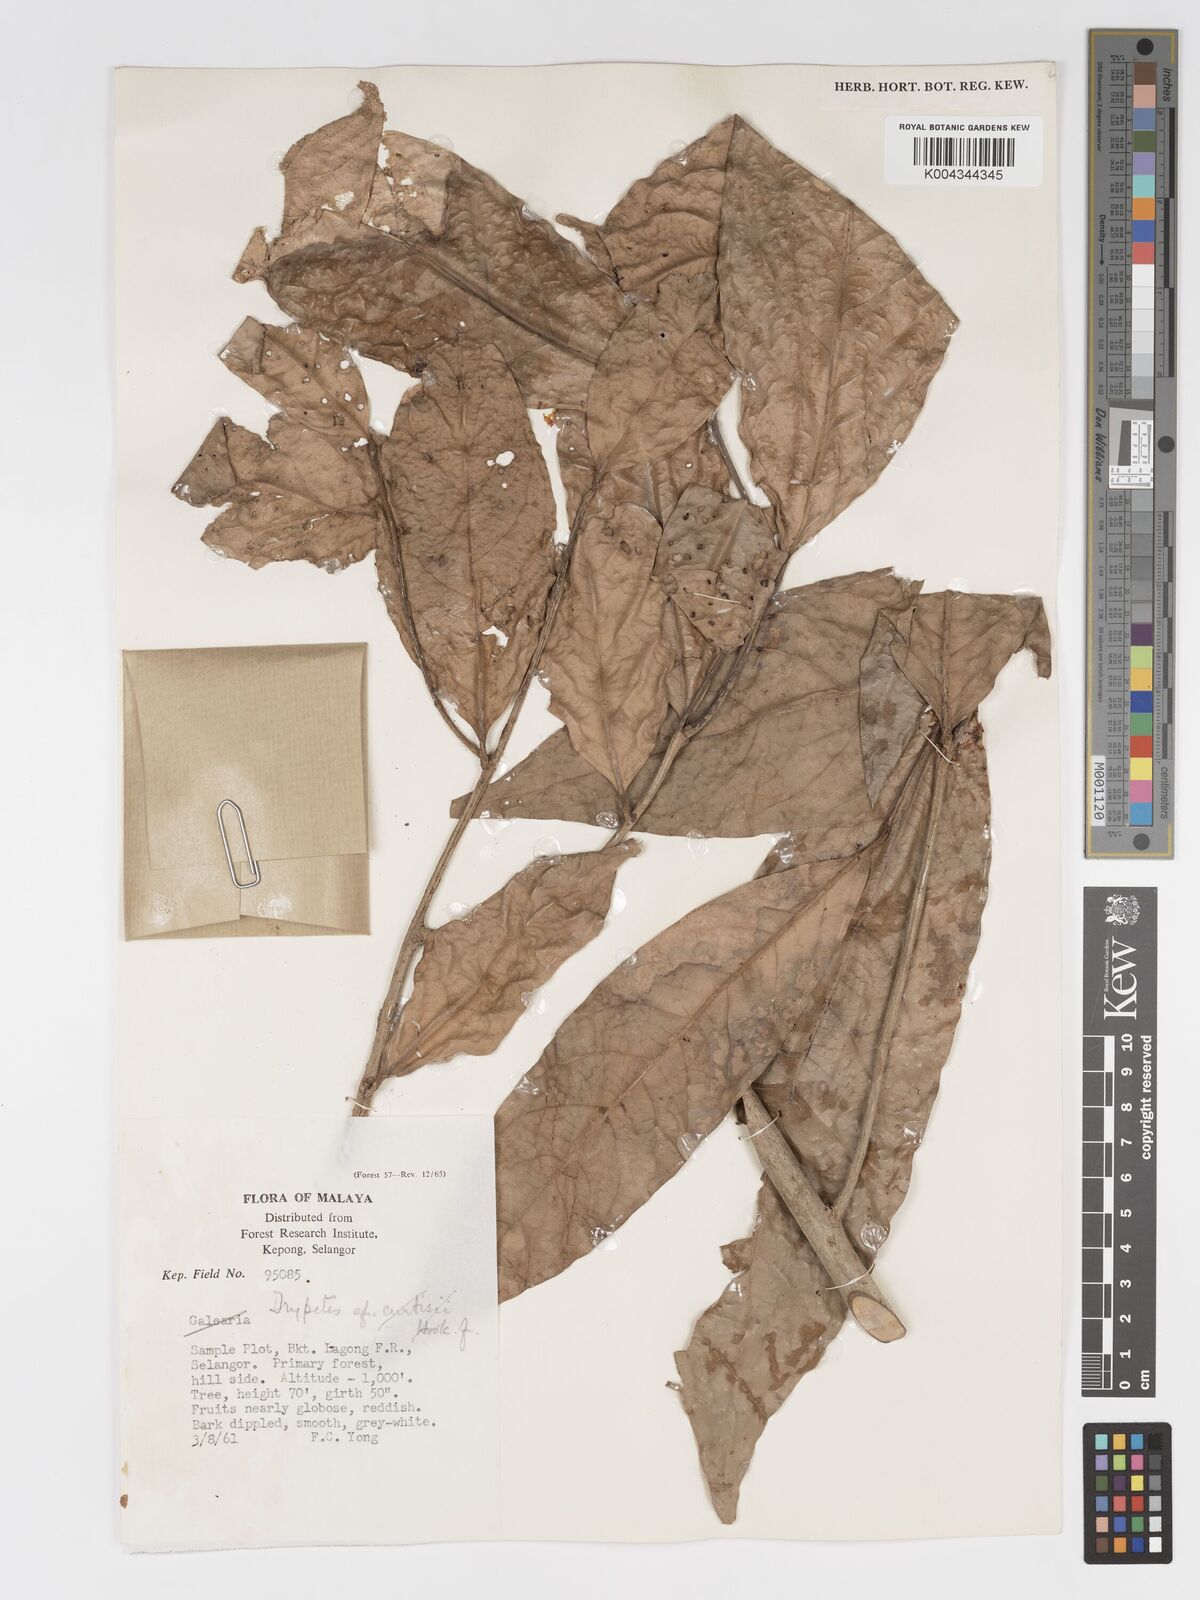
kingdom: Plantae
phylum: Tracheophyta
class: Magnoliopsida
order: Malpighiales
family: Putranjivaceae
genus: Drypetes
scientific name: Drypetes grandifolia
